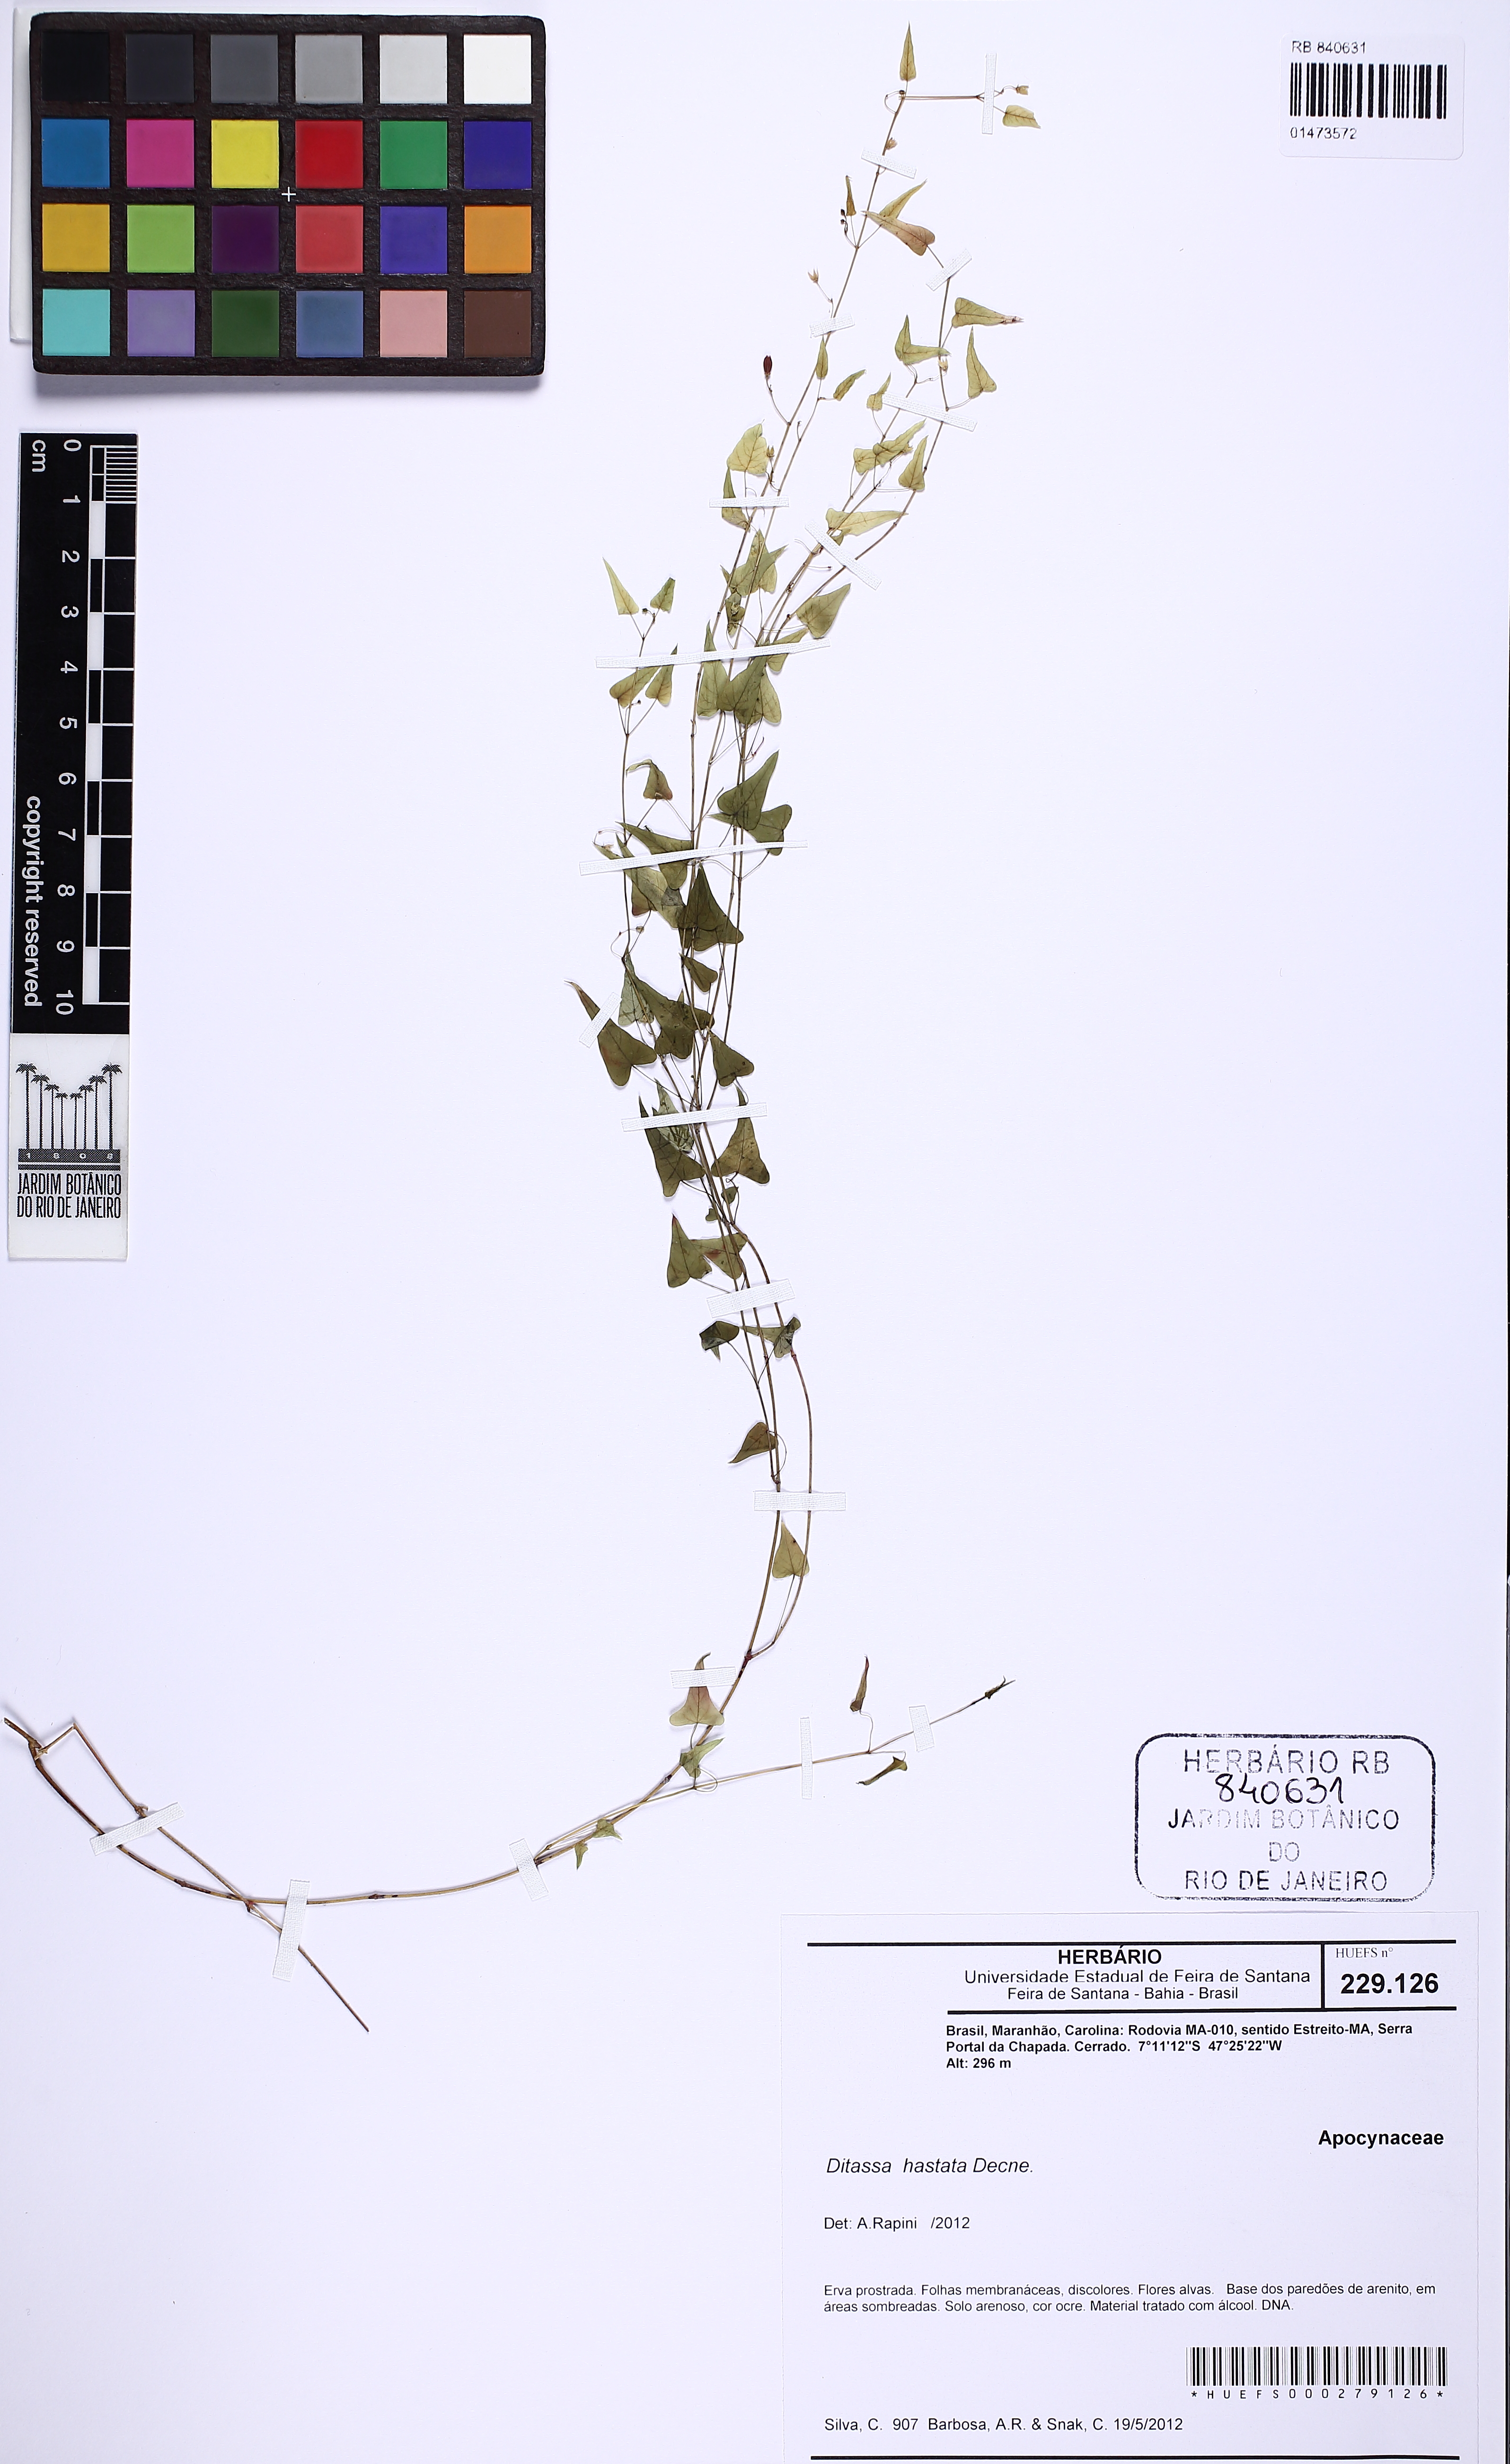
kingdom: Plantae
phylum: Tracheophyta
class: Magnoliopsida
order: Gentianales
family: Apocynaceae
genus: Ditassa
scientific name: Ditassa hastata
